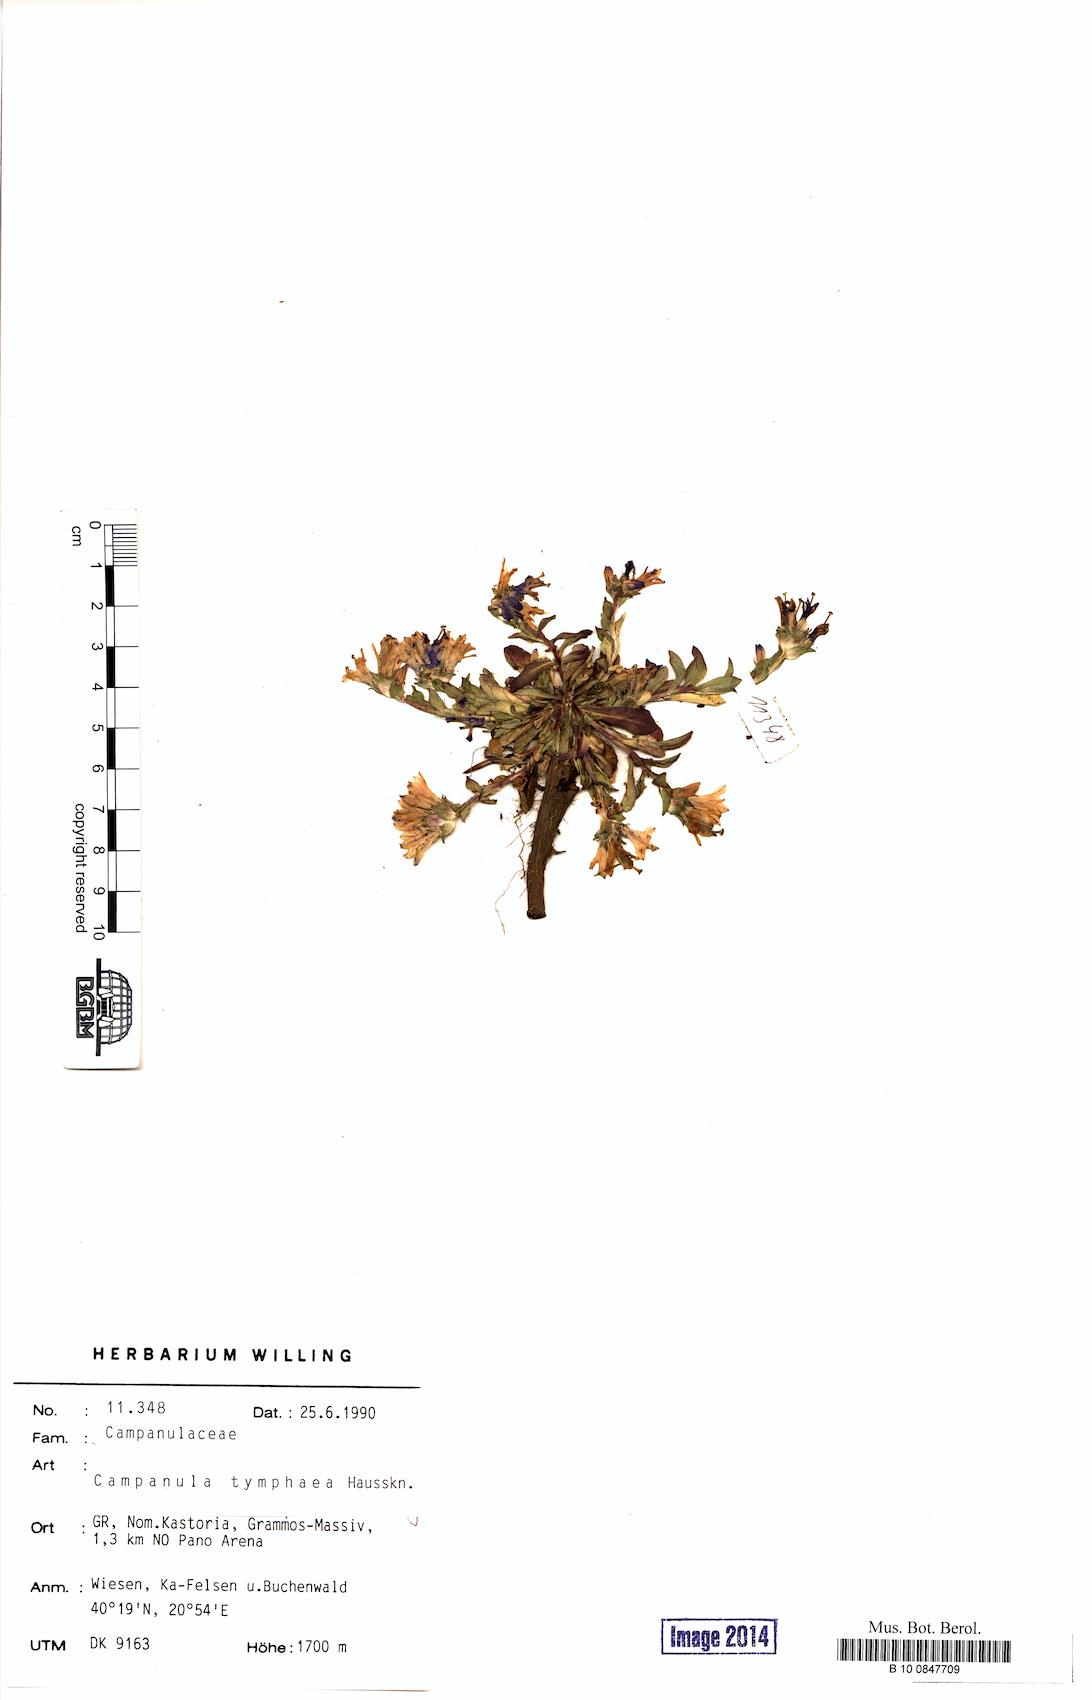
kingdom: Plantae
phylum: Tracheophyta
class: Magnoliopsida
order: Asterales
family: Campanulaceae
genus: Campanula
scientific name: Campanula tymphaea
